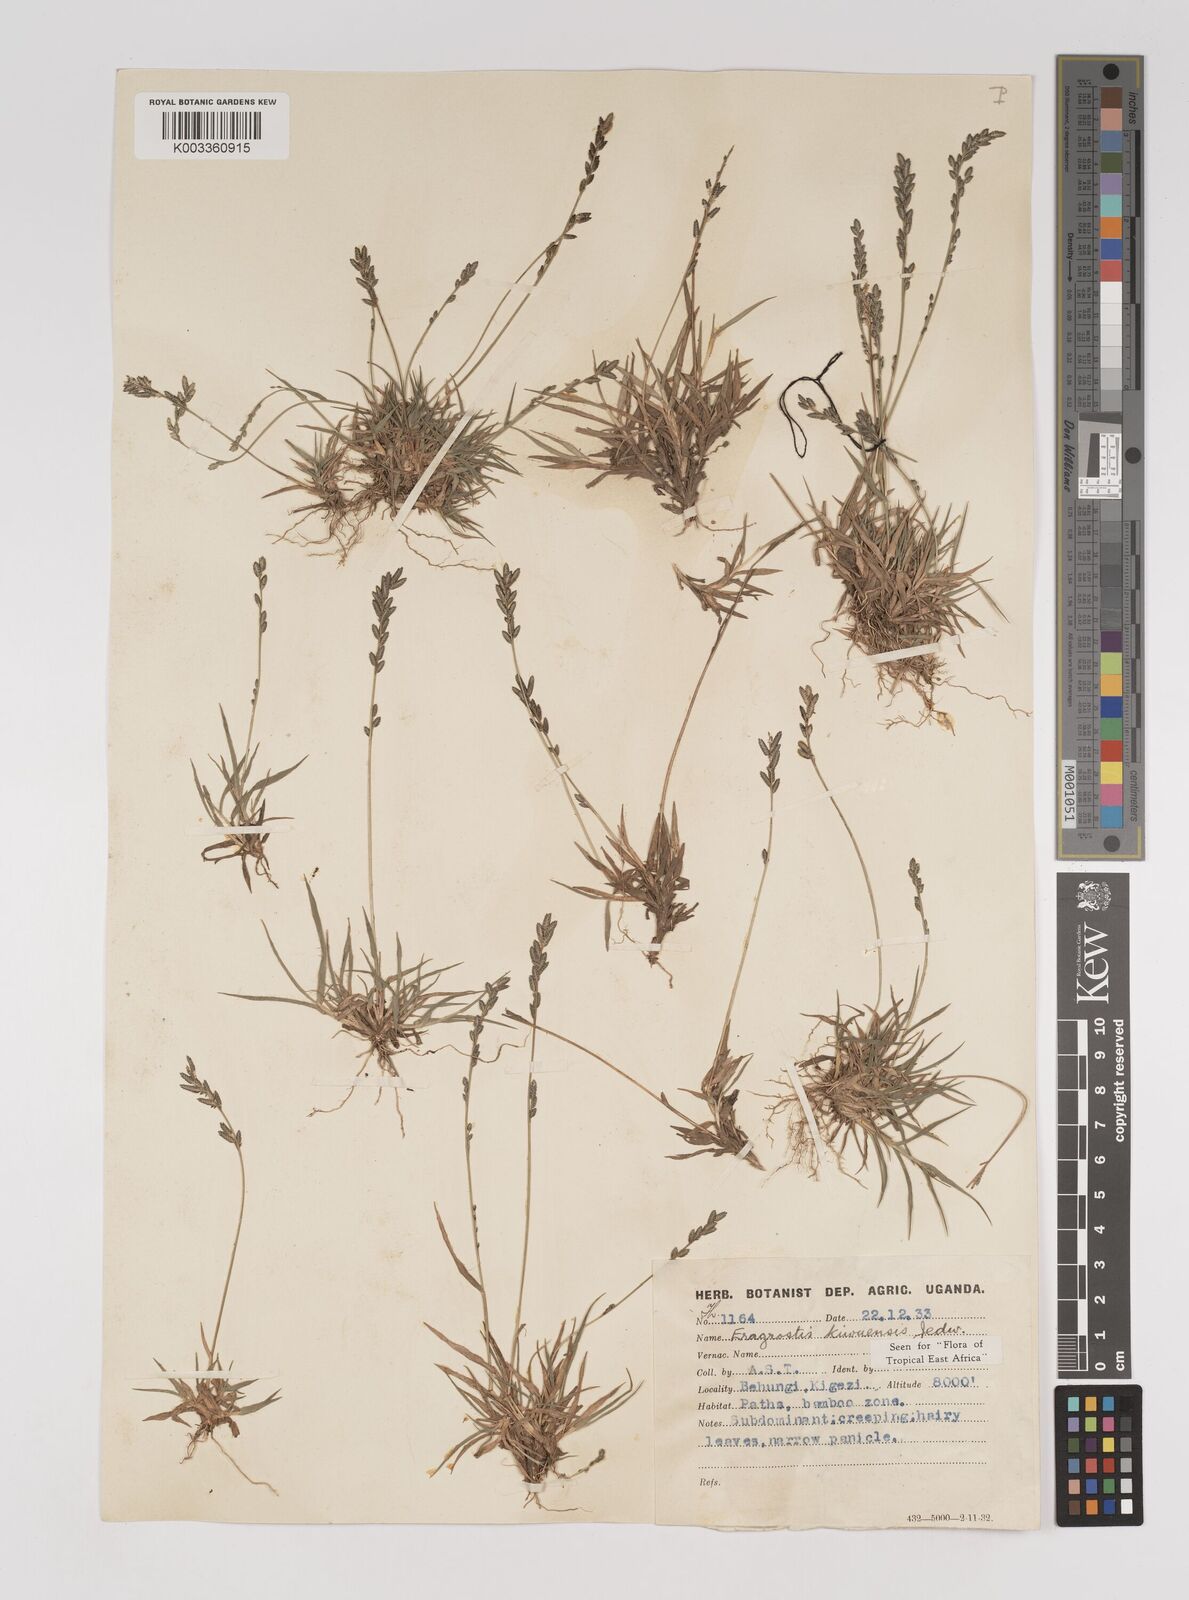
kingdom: Plantae
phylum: Tracheophyta
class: Liliopsida
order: Poales
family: Poaceae
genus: Eragrostis
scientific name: Eragrostis schweinfurthii
